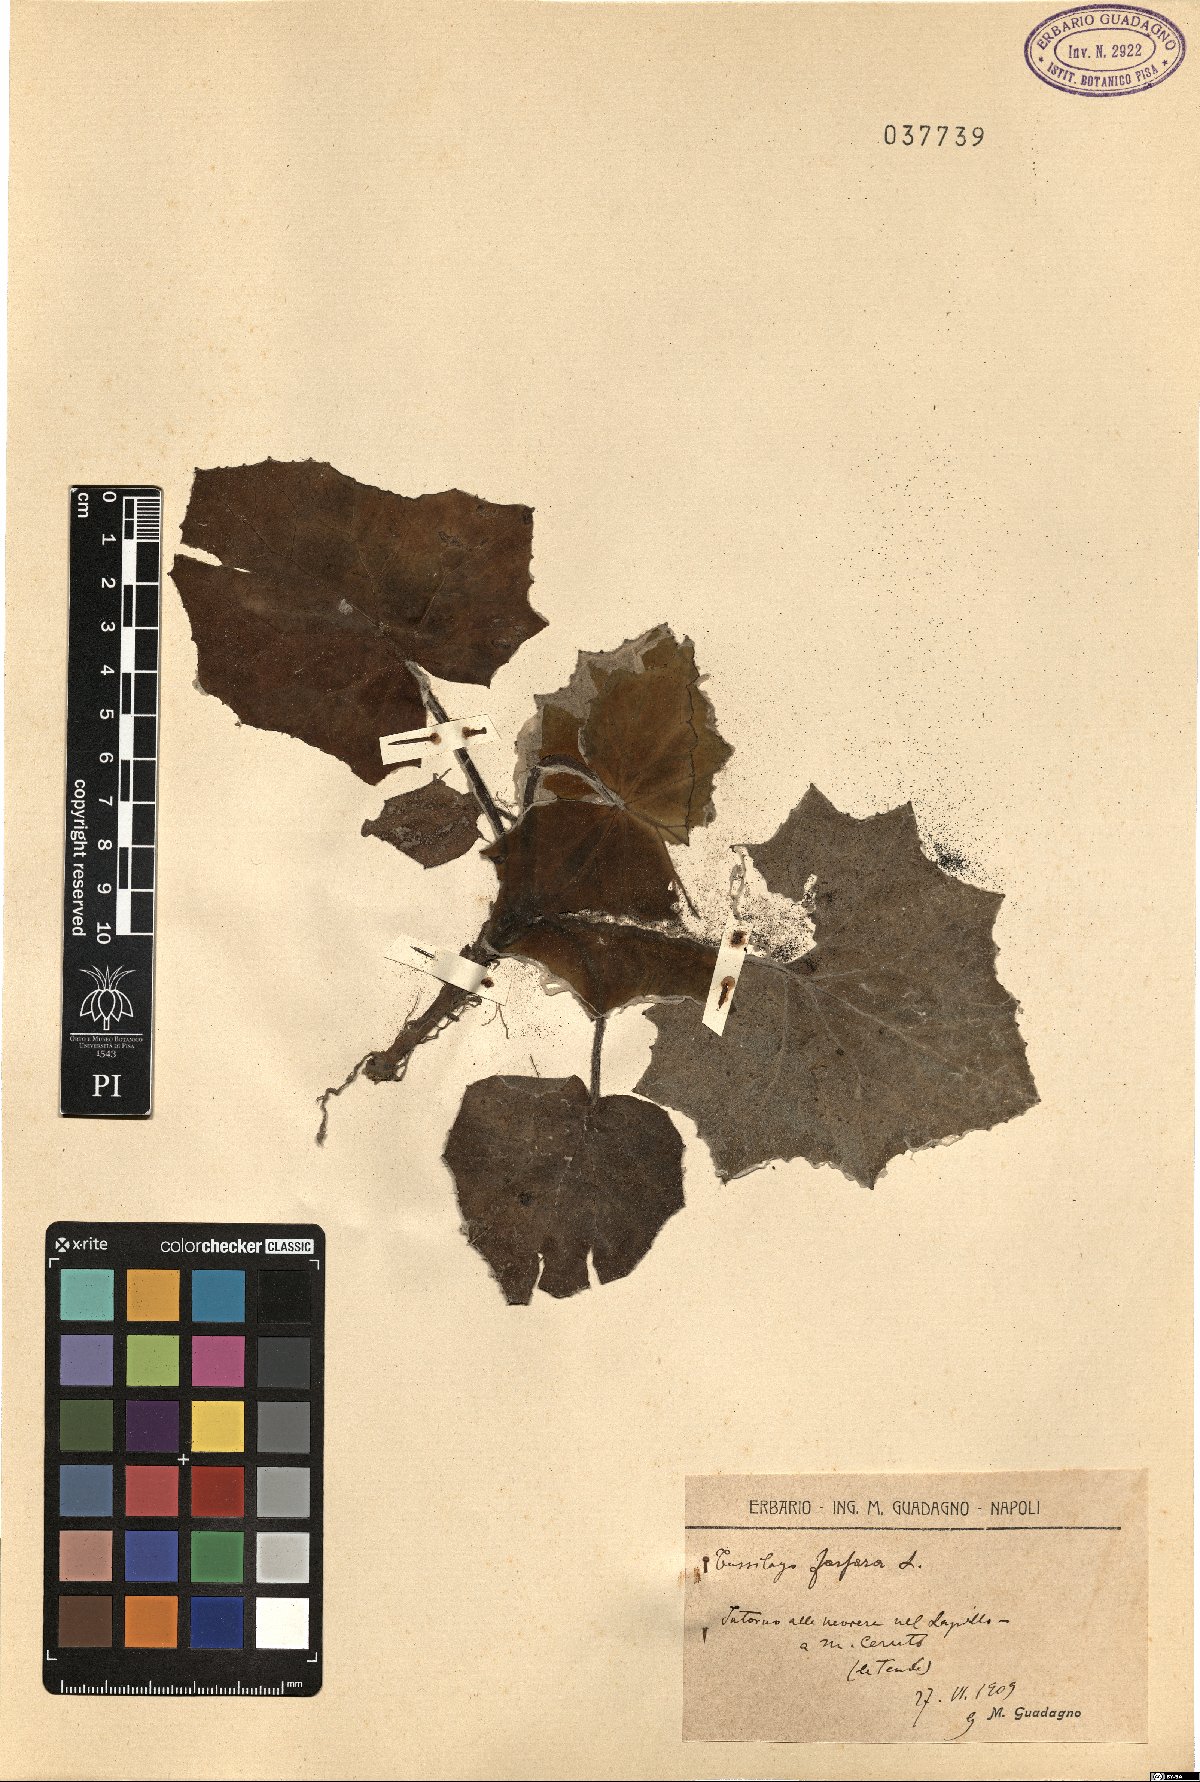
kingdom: Plantae
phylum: Tracheophyta
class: Magnoliopsida
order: Asterales
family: Asteraceae
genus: Tussilago
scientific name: Tussilago farfara
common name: Coltsfoot
